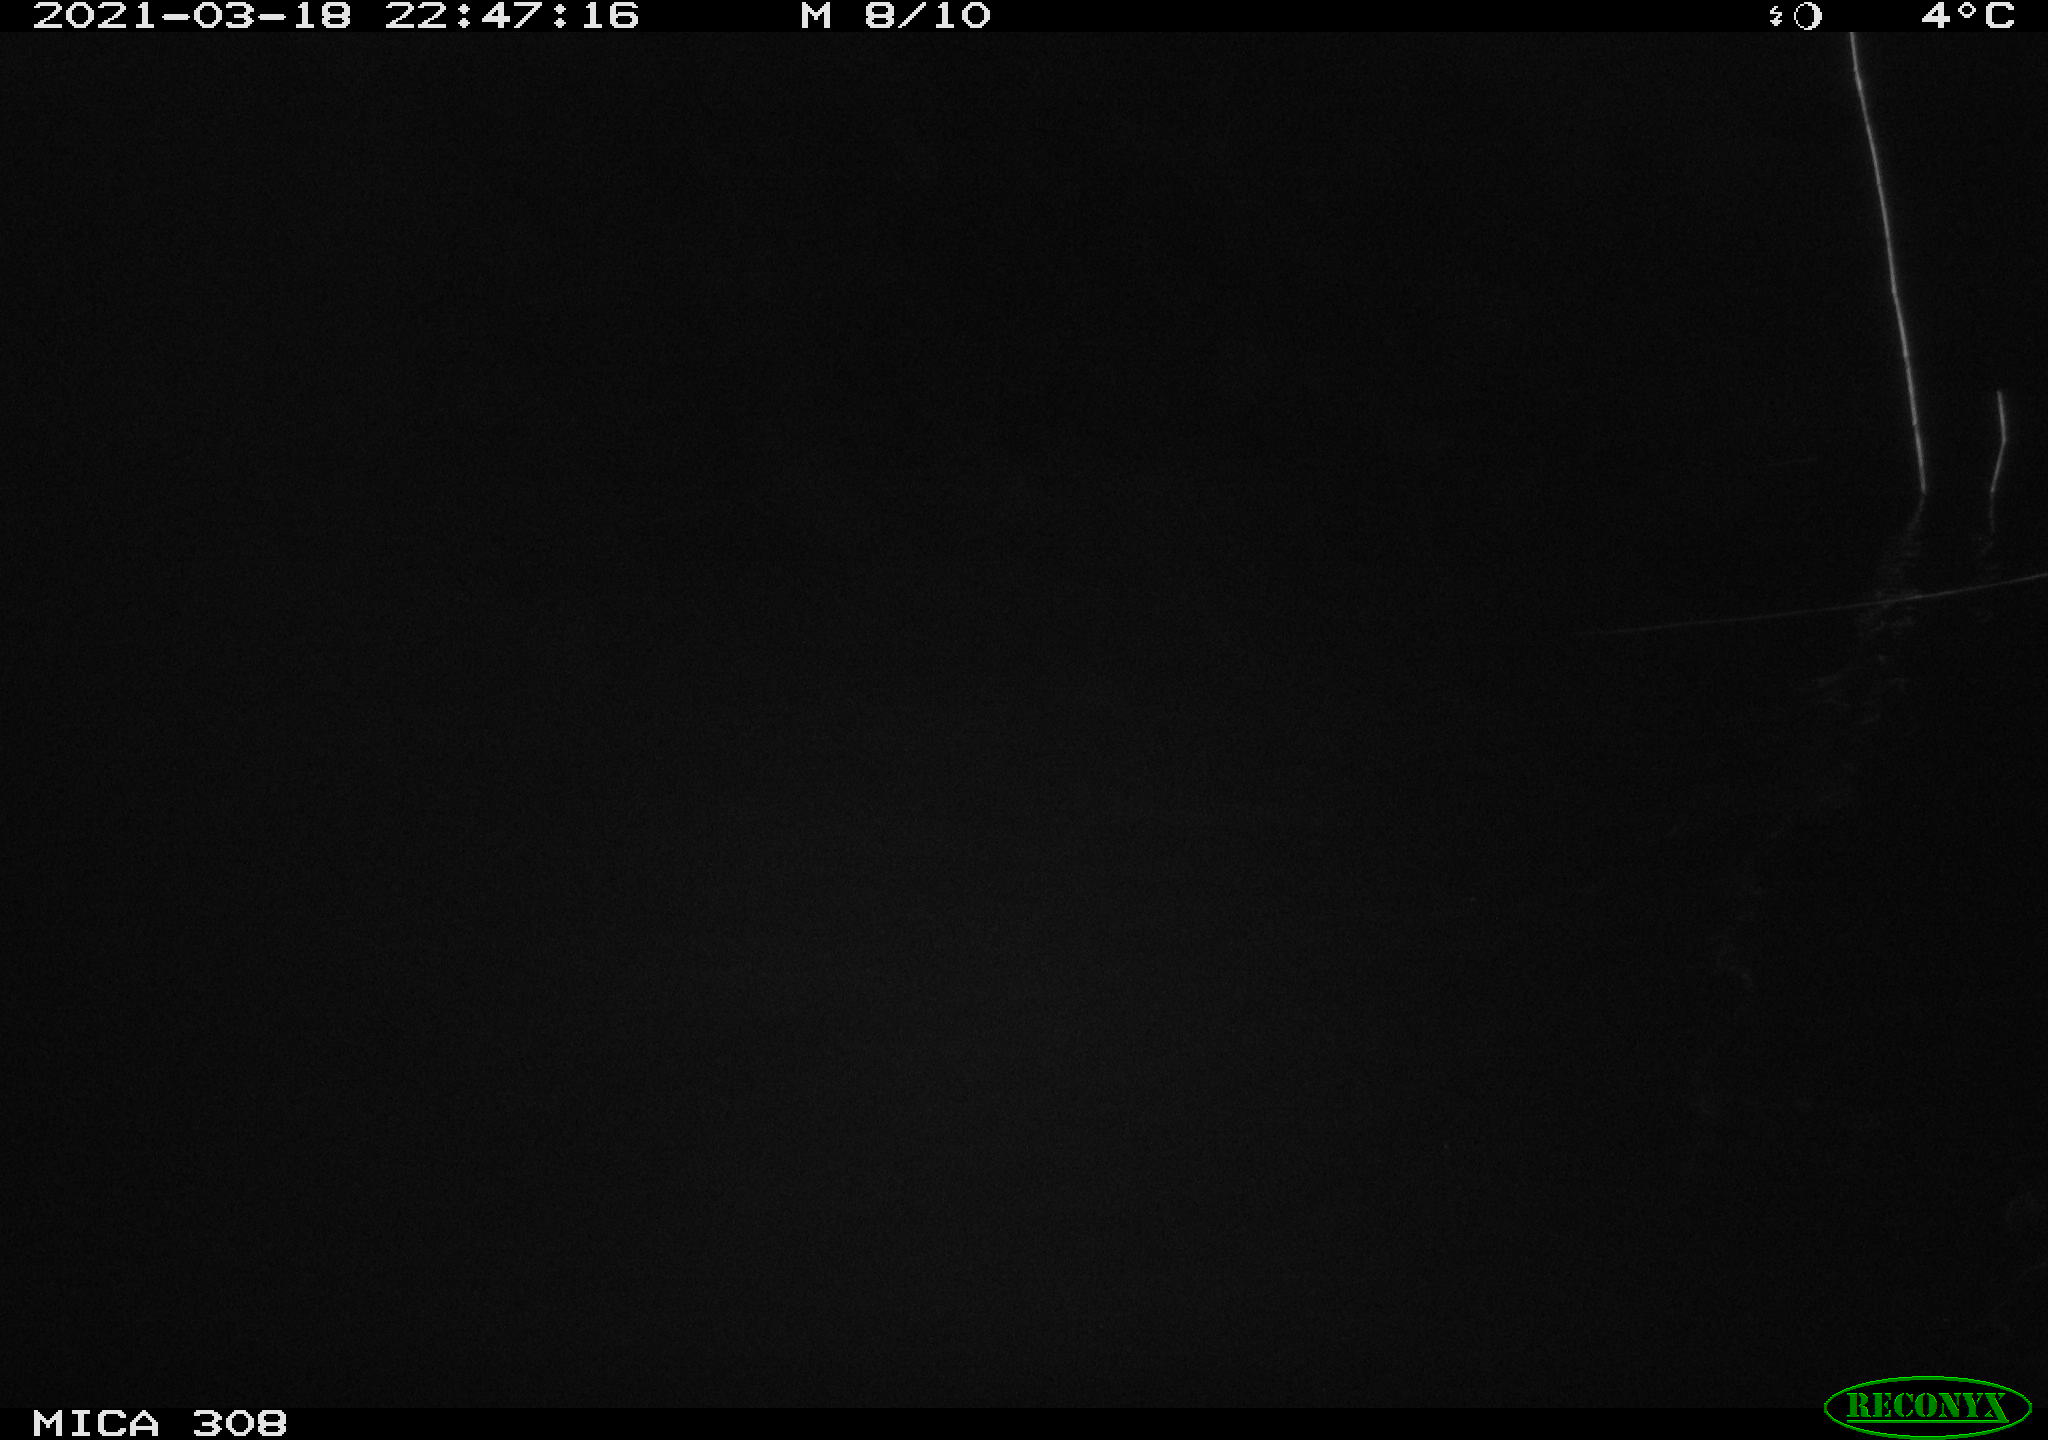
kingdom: Animalia
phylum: Chordata
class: Mammalia
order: Rodentia
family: Cricetidae
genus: Ondatra
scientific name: Ondatra zibethicus
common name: Muskrat
